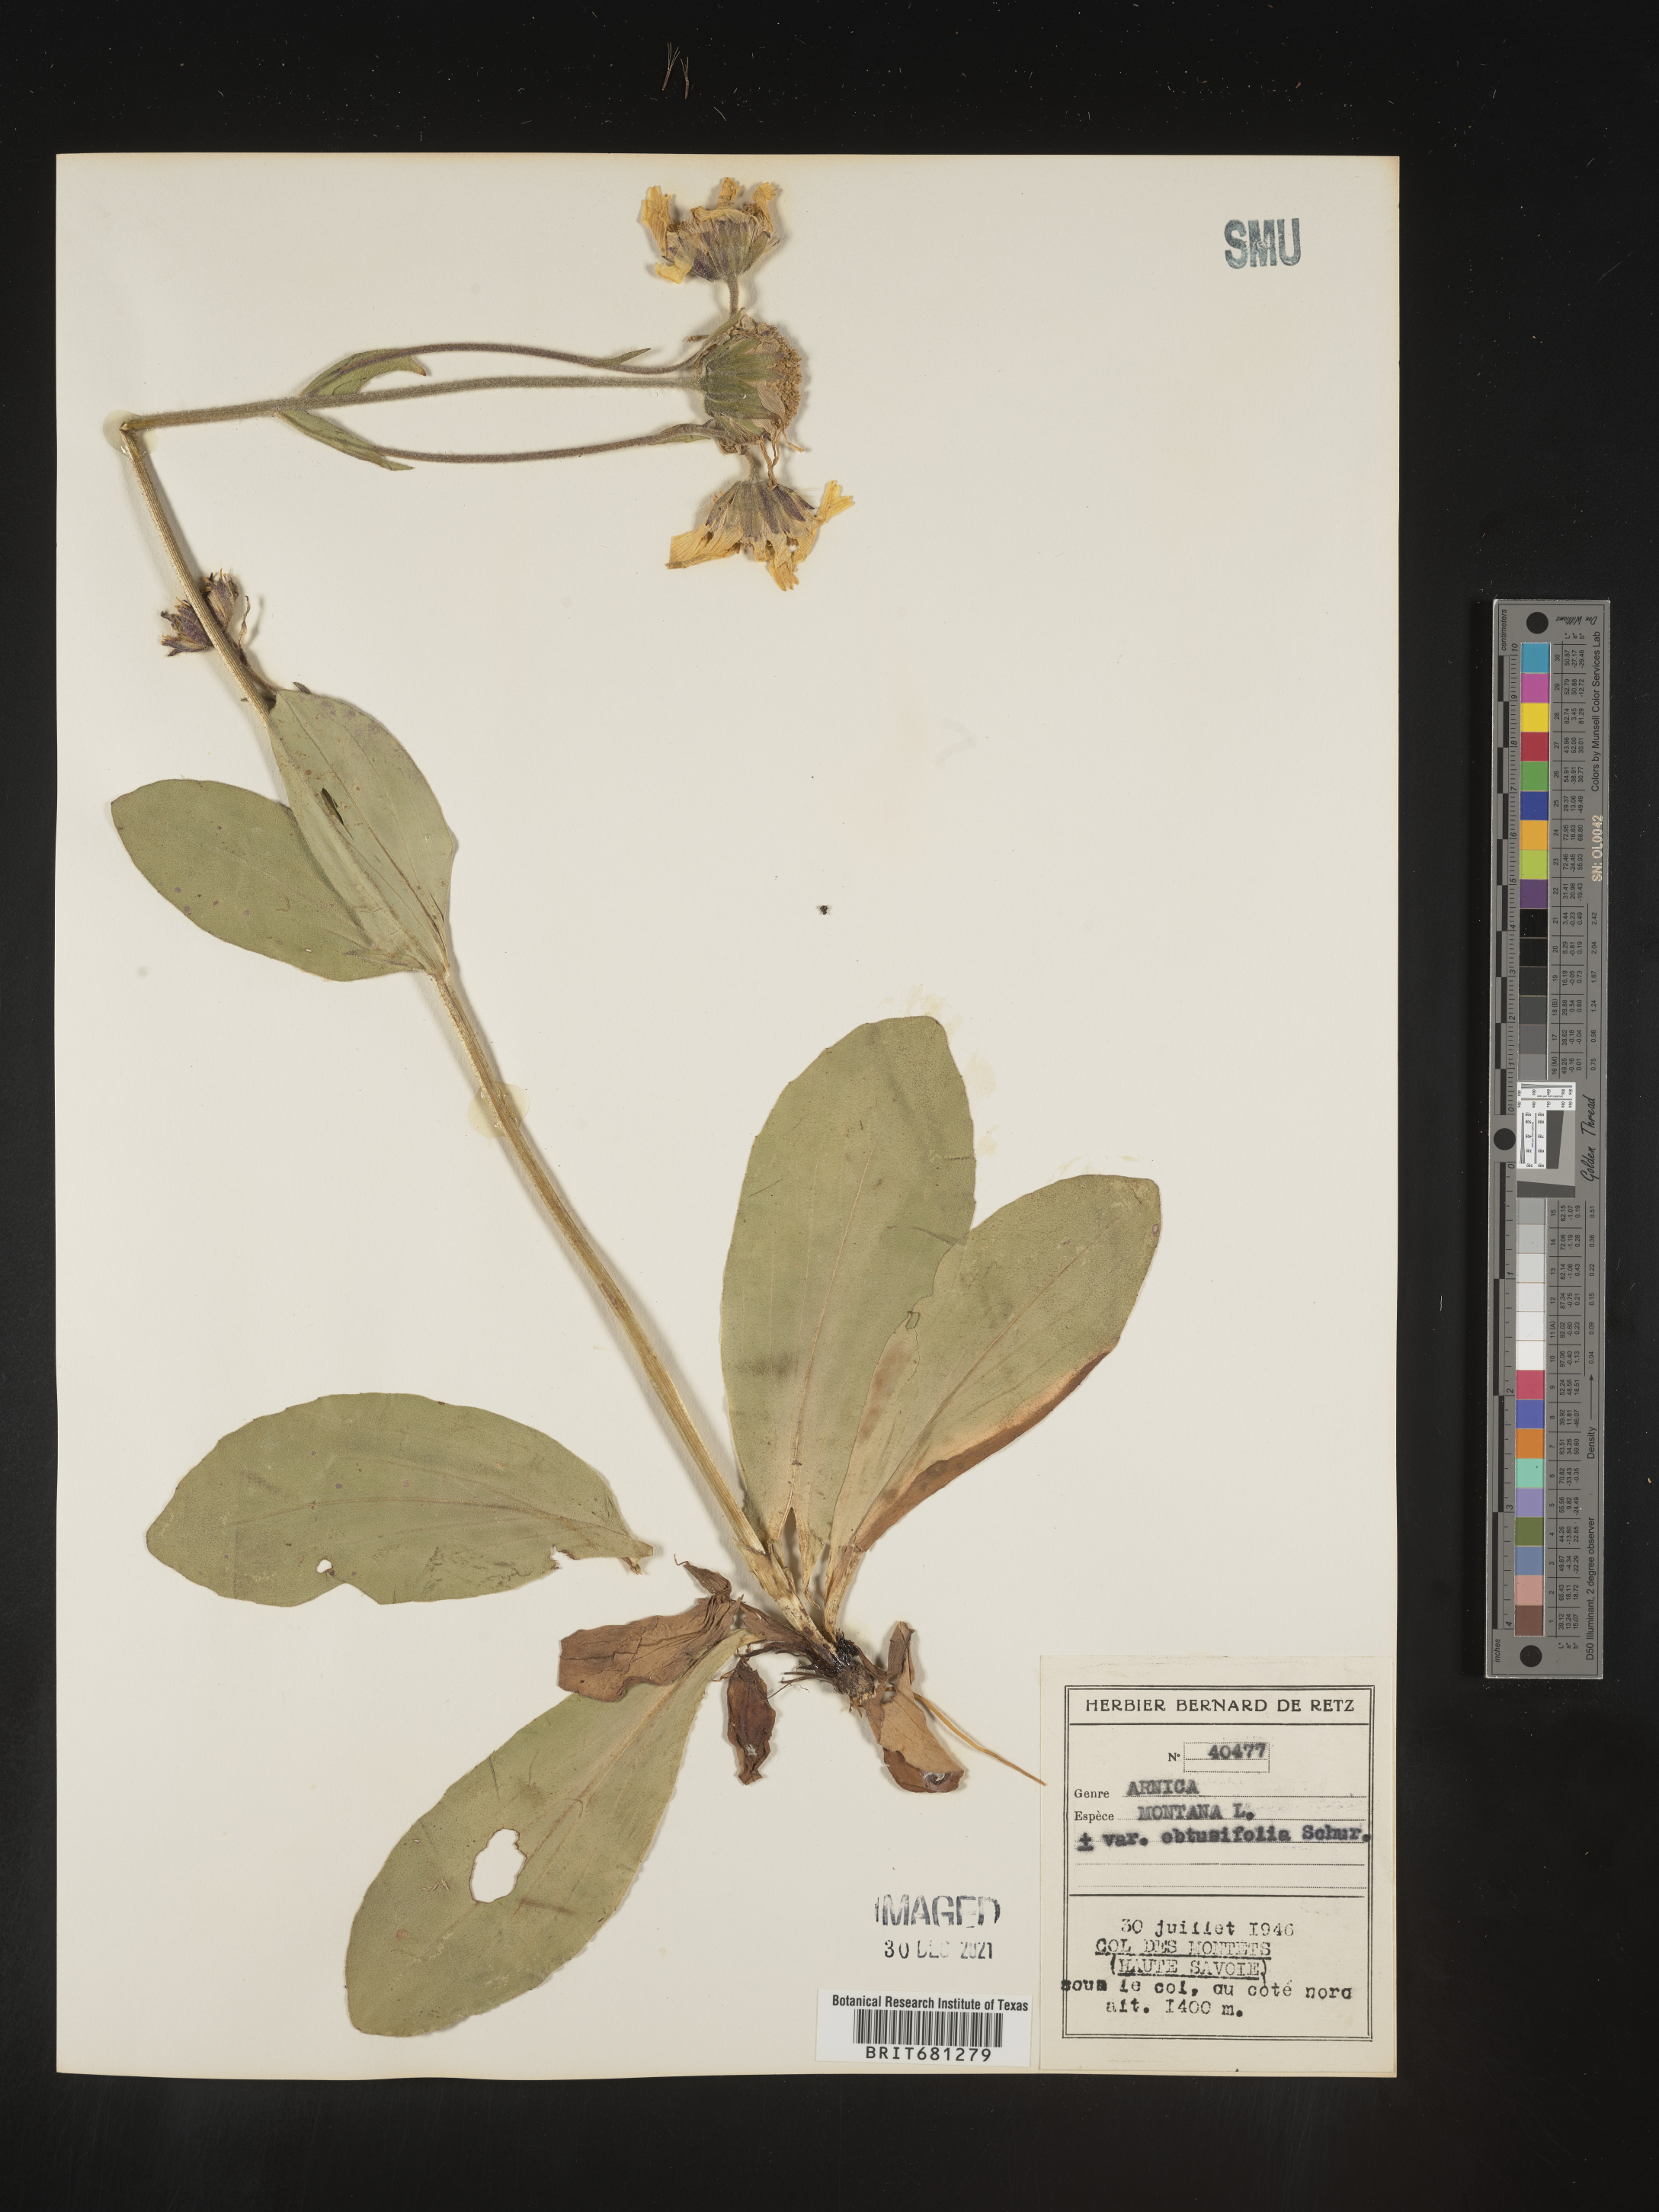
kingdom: Plantae
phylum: Tracheophyta
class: Magnoliopsida
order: Asterales
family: Asteraceae
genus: Arnica
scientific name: Arnica
